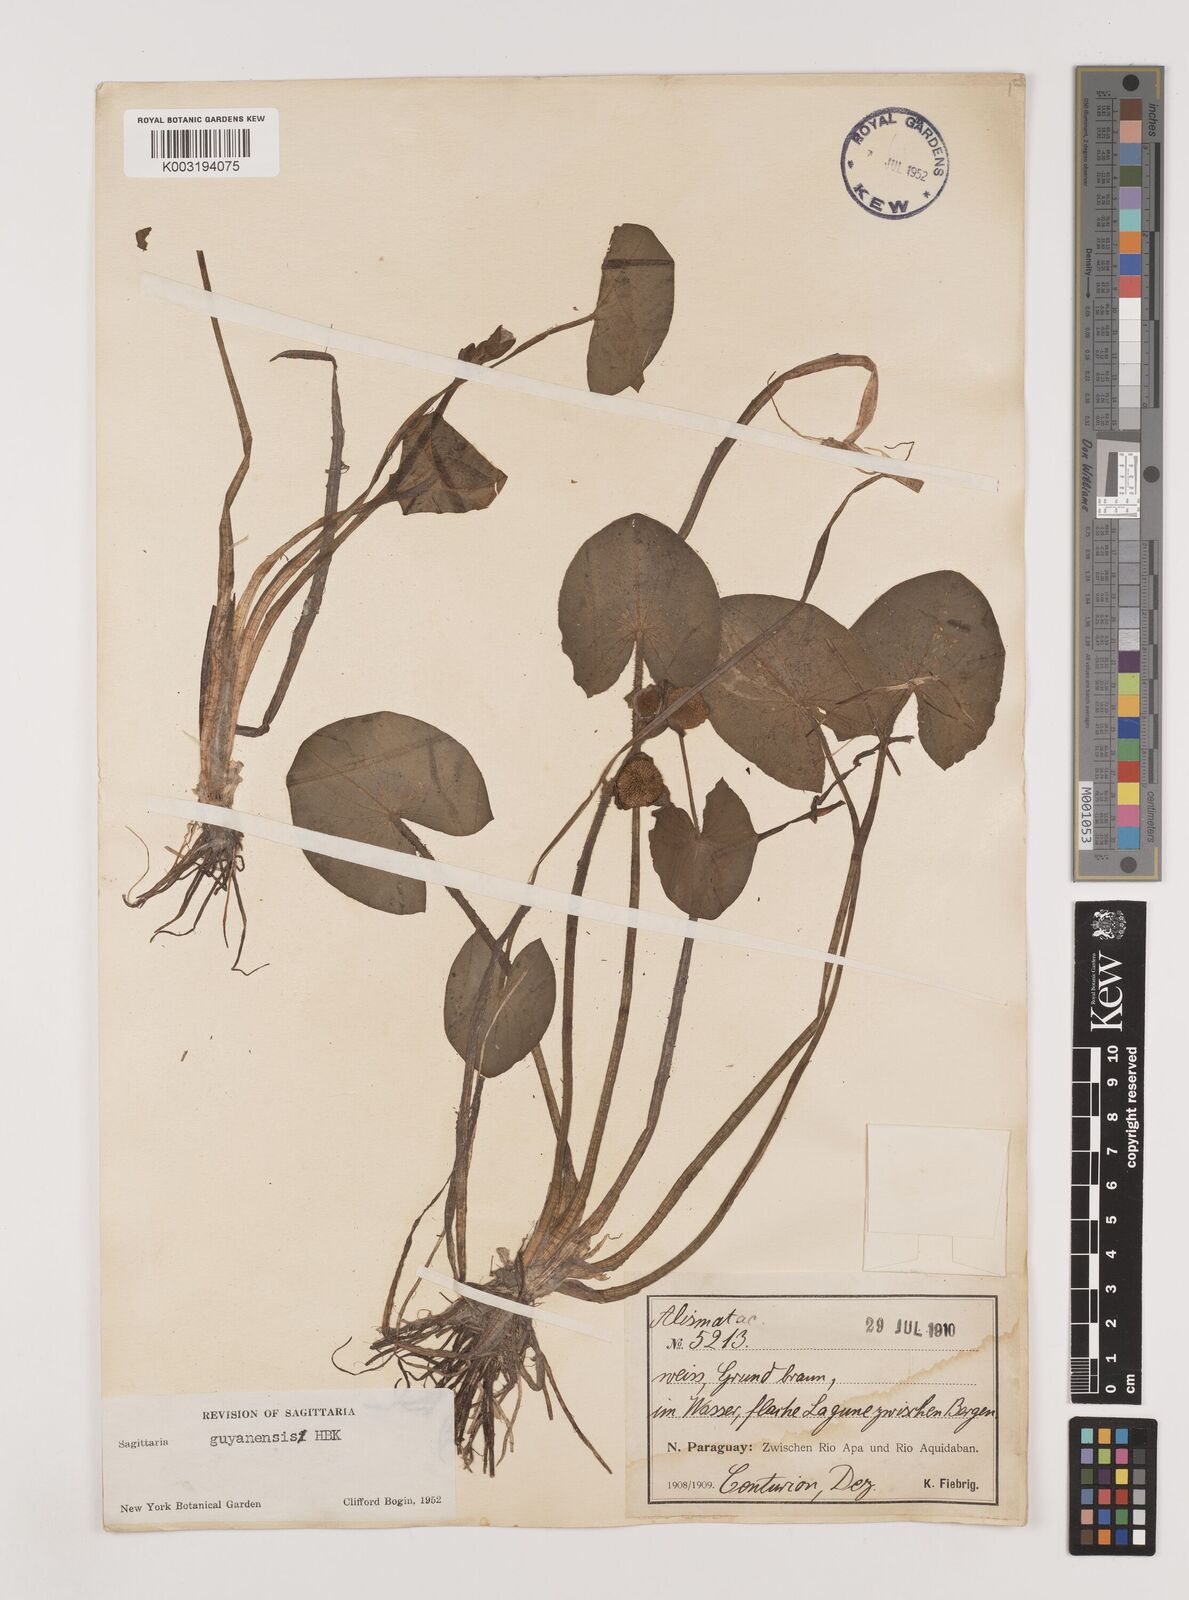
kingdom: Plantae
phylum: Tracheophyta
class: Liliopsida
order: Alismatales
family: Alismataceae
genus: Sagittaria
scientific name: Sagittaria guayanensis
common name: Guyanese arrowhead
